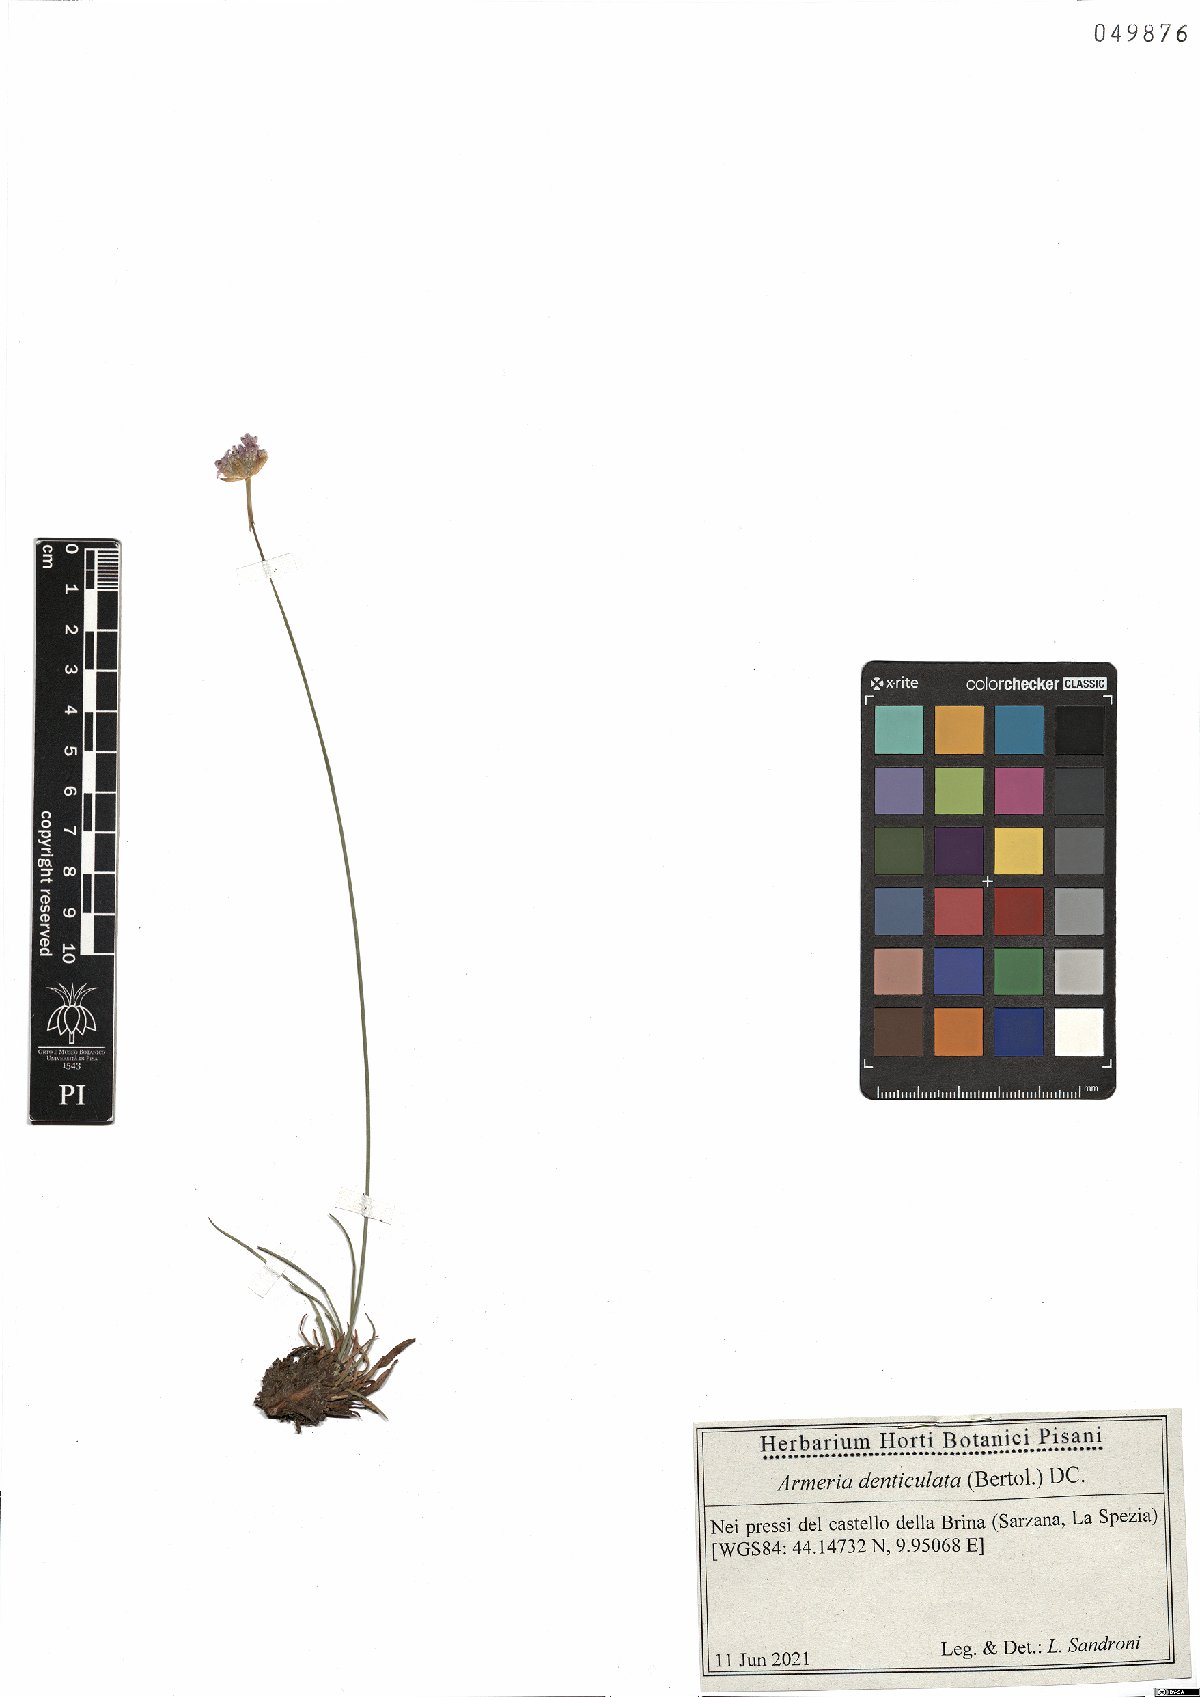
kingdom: Plantae
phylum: Tracheophyta
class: Magnoliopsida
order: Caryophyllales
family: Plumbaginaceae
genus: Armeria
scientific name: Armeria denticulata
